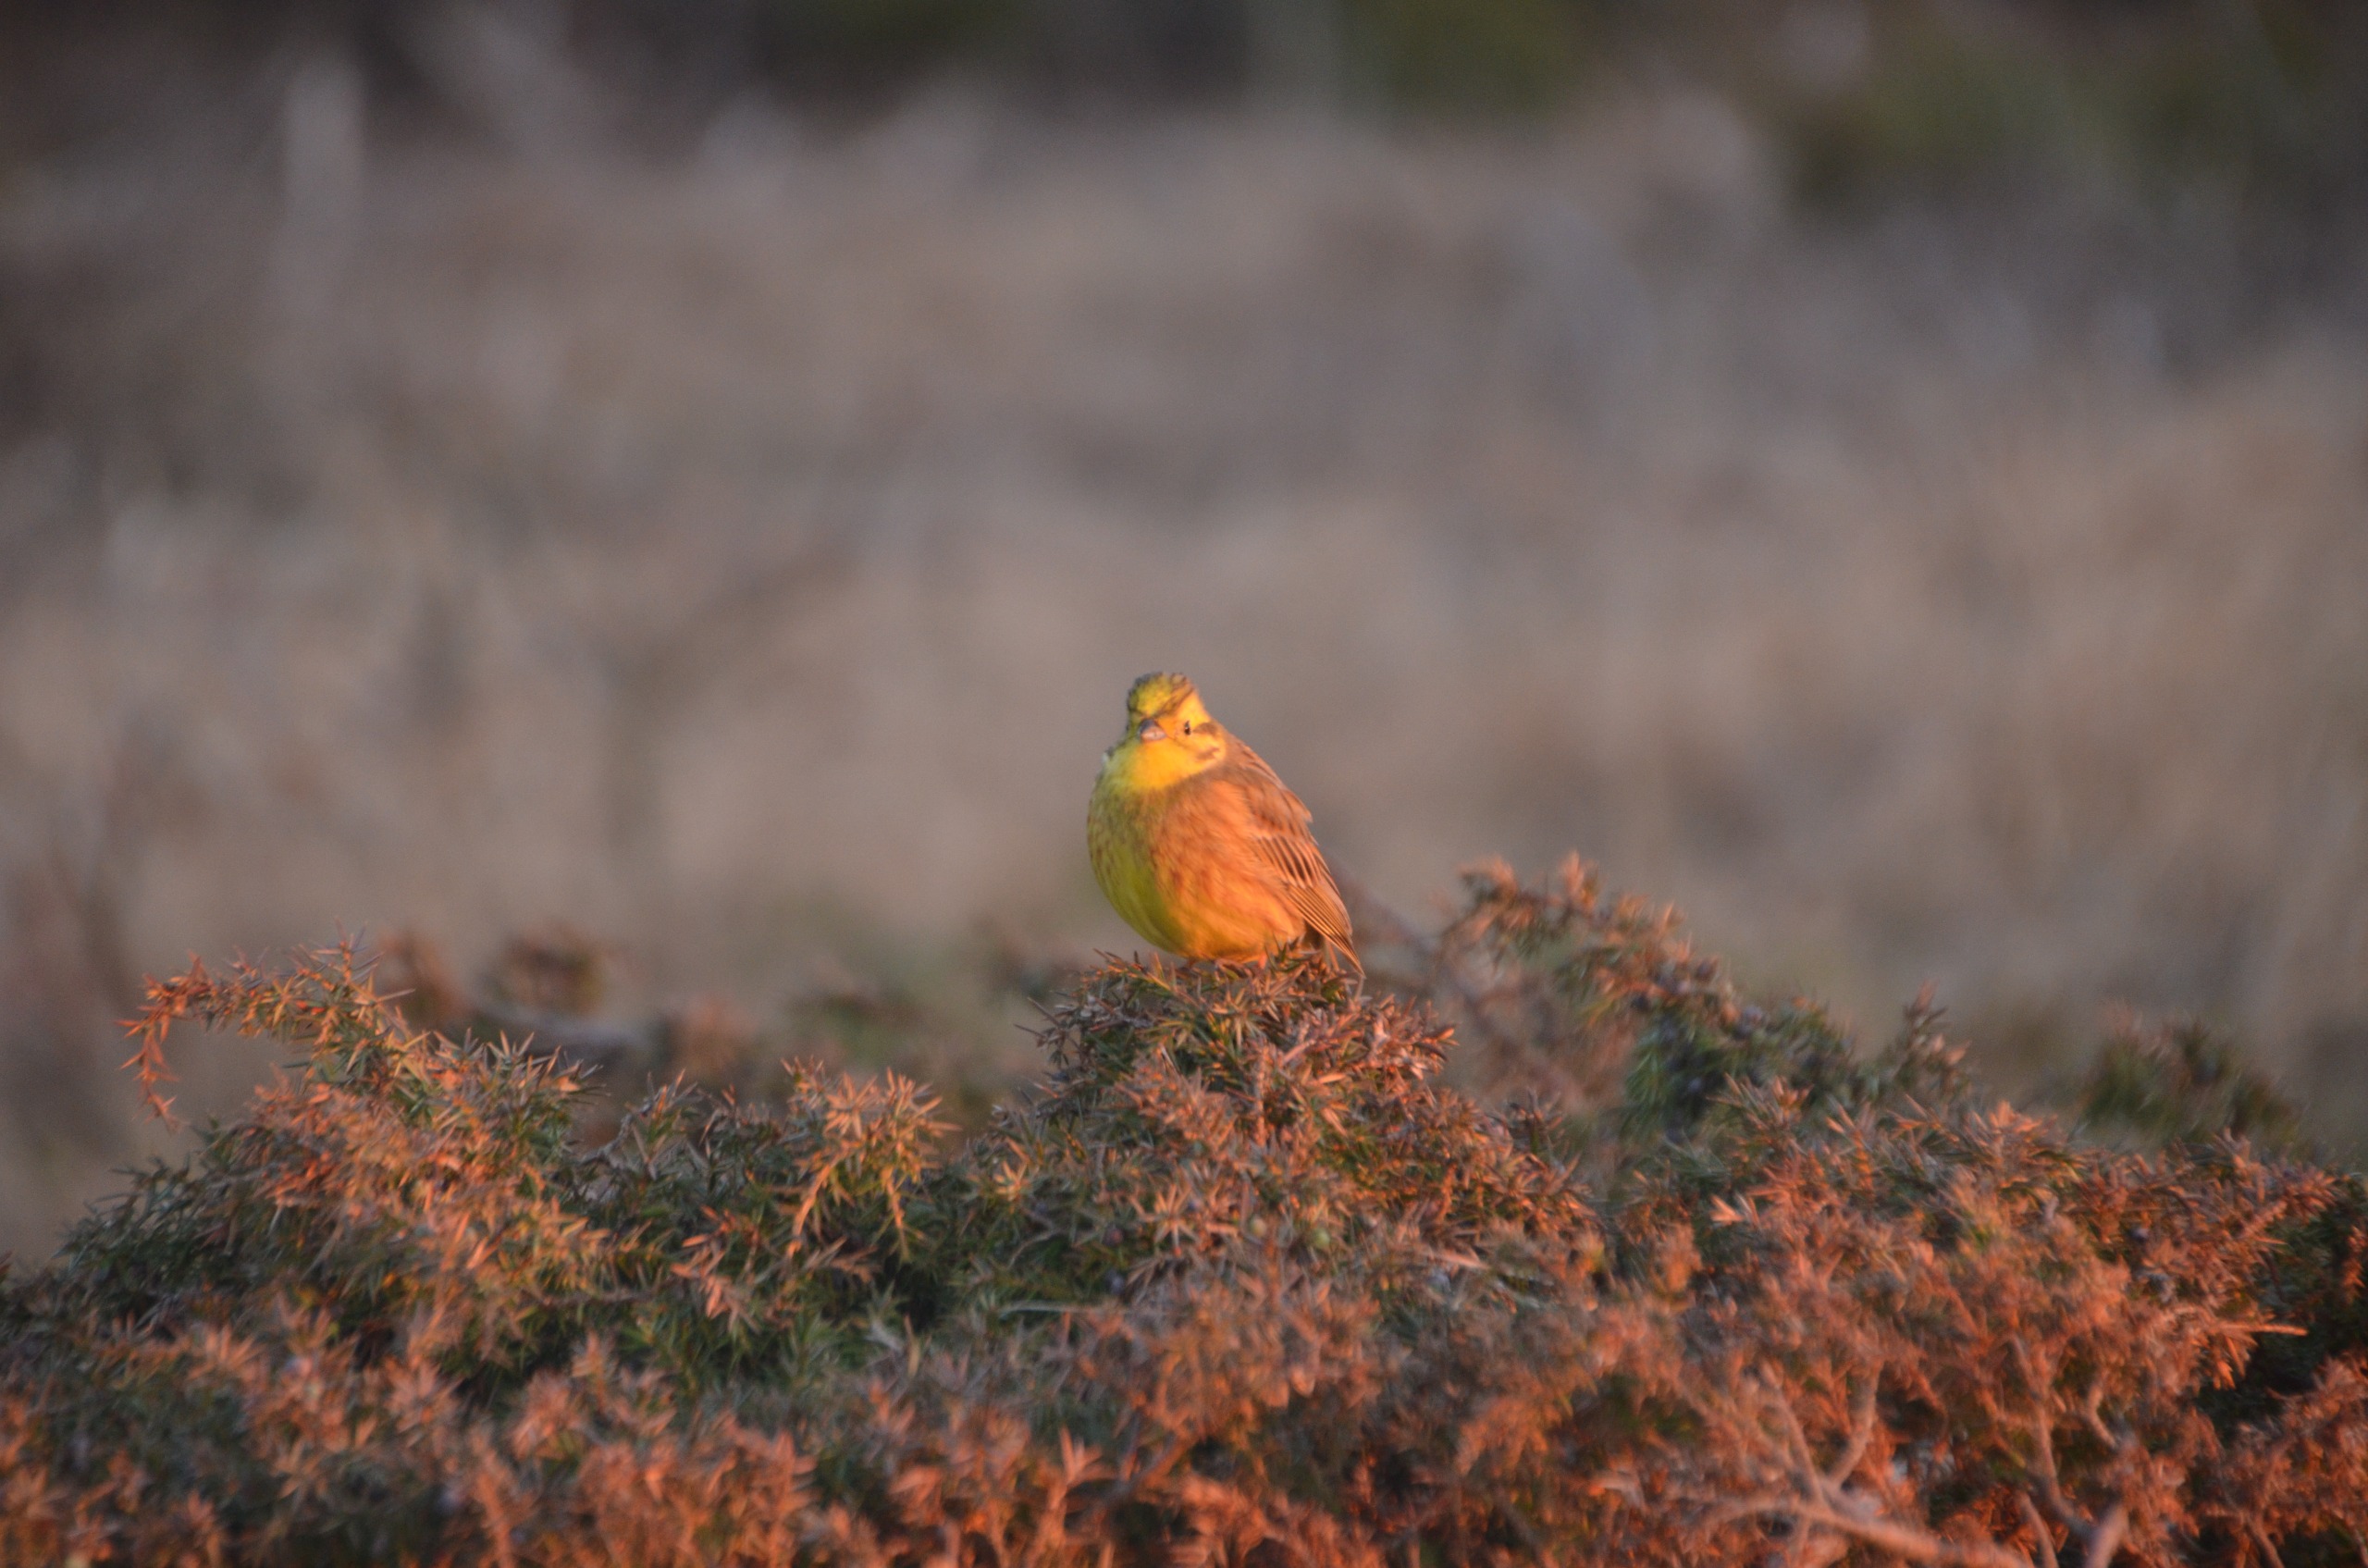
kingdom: Animalia
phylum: Chordata
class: Aves
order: Passeriformes
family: Emberizidae
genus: Emberiza
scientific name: Emberiza citrinella
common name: Gulspurv
